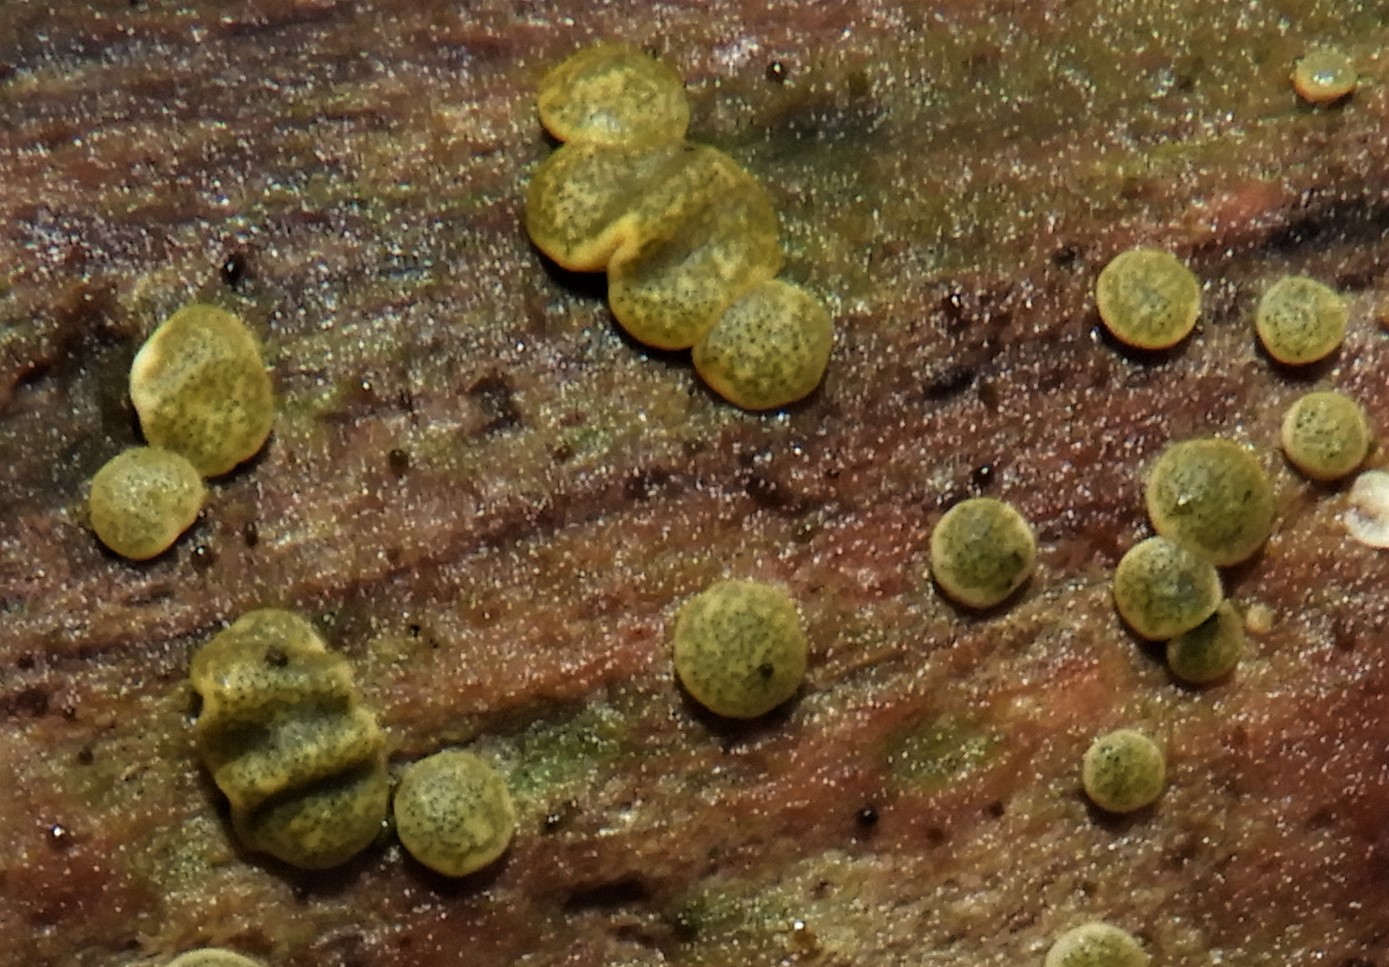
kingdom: Fungi
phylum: Ascomycota
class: Sordariomycetes
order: Hypocreales
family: Hypocreaceae
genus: Trichoderma
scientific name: Trichoderma aureoviride
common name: æggegul kødkerne
